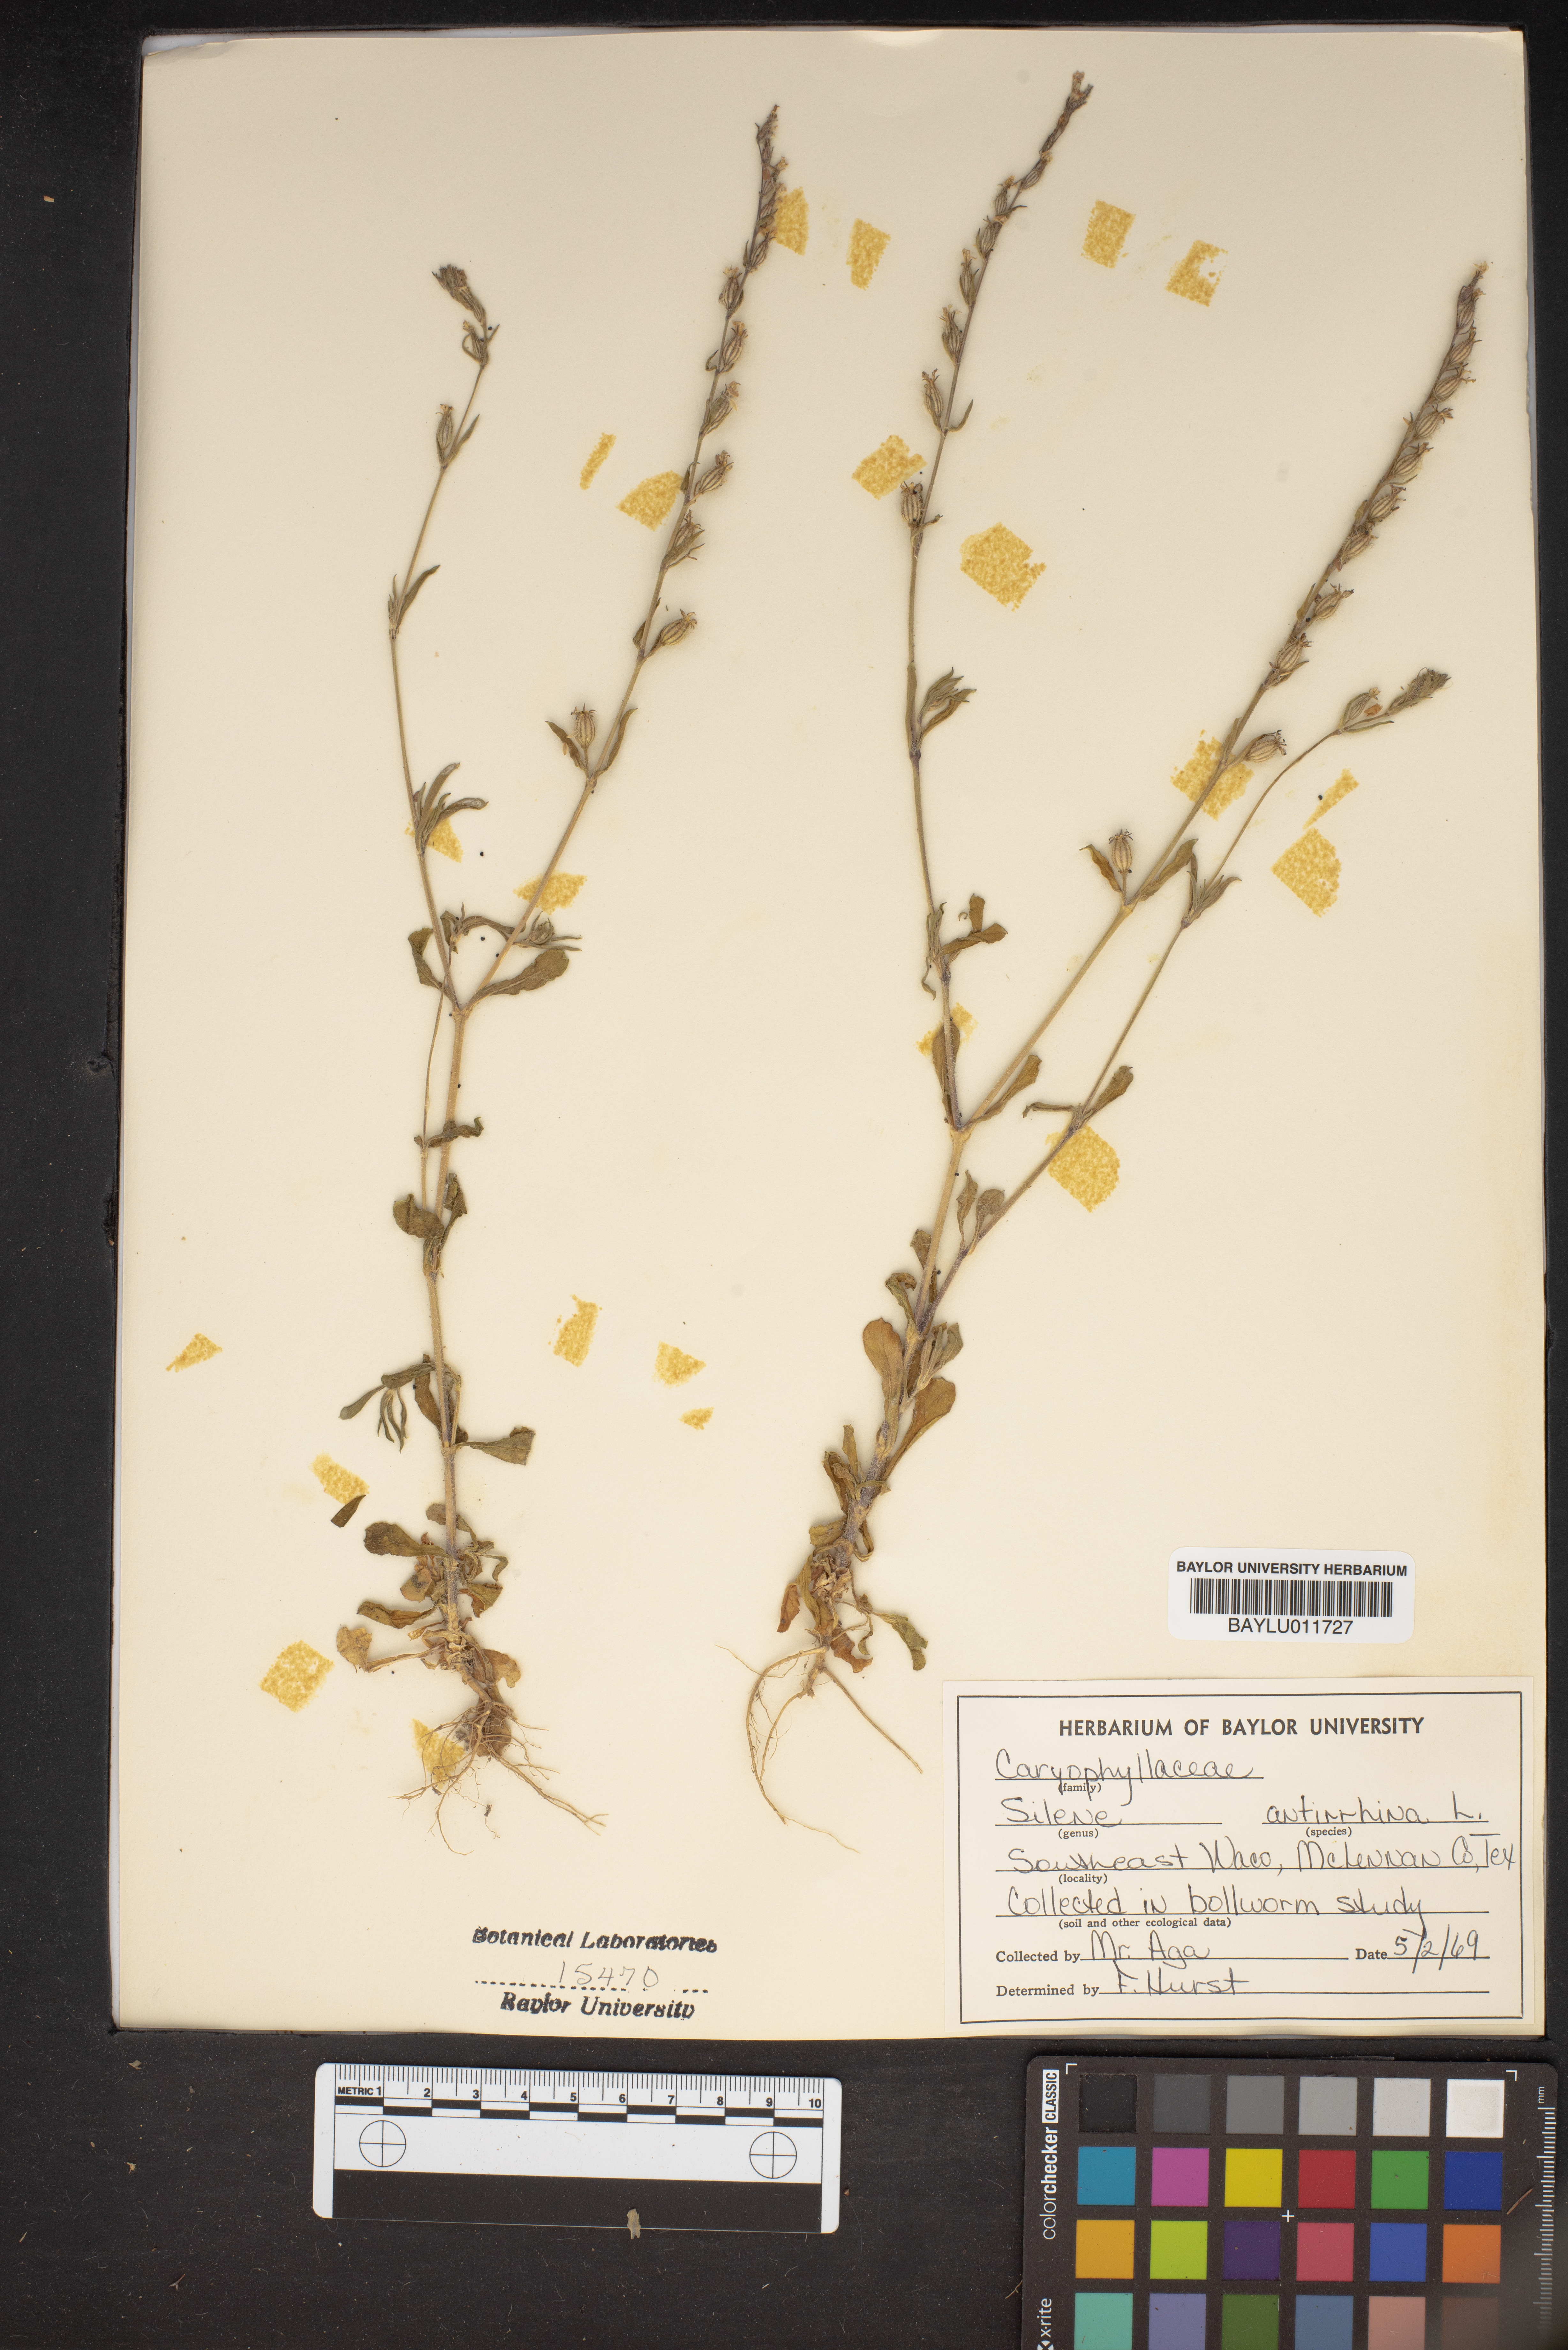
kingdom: Plantae
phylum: Tracheophyta
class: Magnoliopsida
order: Caryophyllales
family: Caryophyllaceae
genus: Silene
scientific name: Silene antirrhina
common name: Sleepy catchfly
